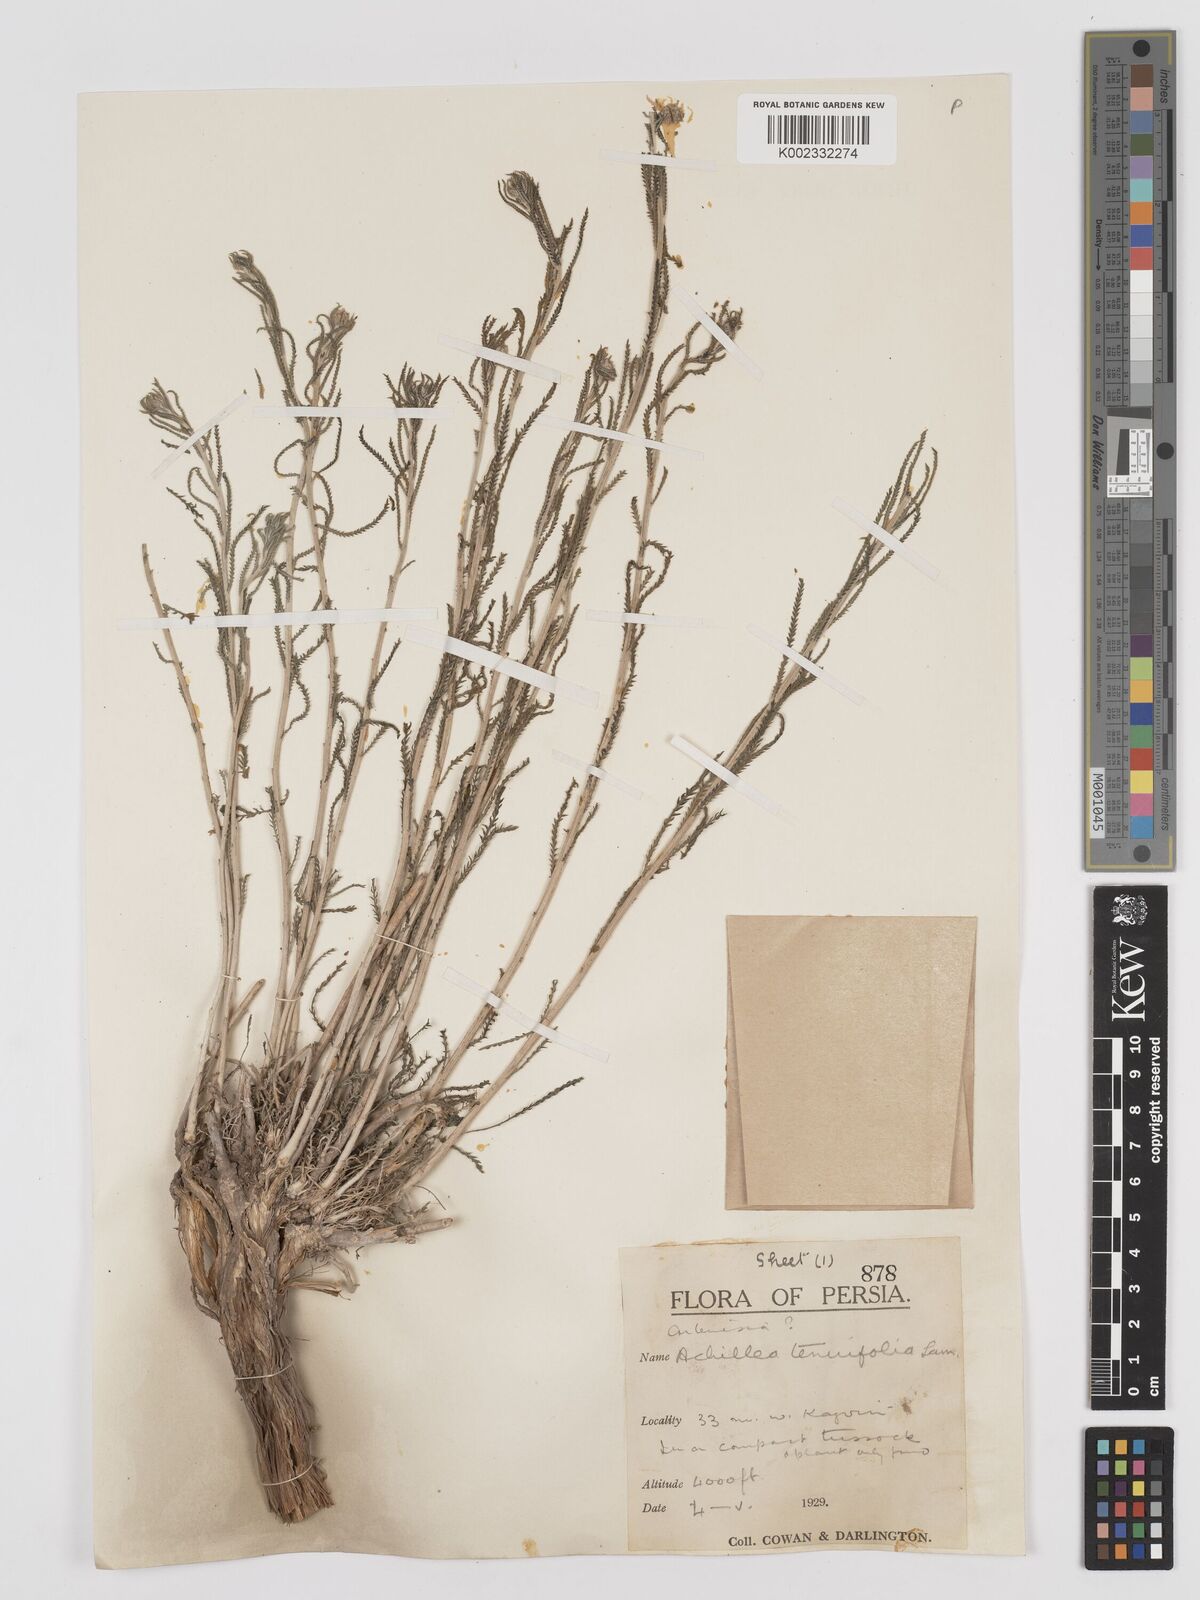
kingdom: Plantae
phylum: Tracheophyta
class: Magnoliopsida
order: Asterales
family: Asteraceae
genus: Achillea
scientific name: Achillea tenuifolia
